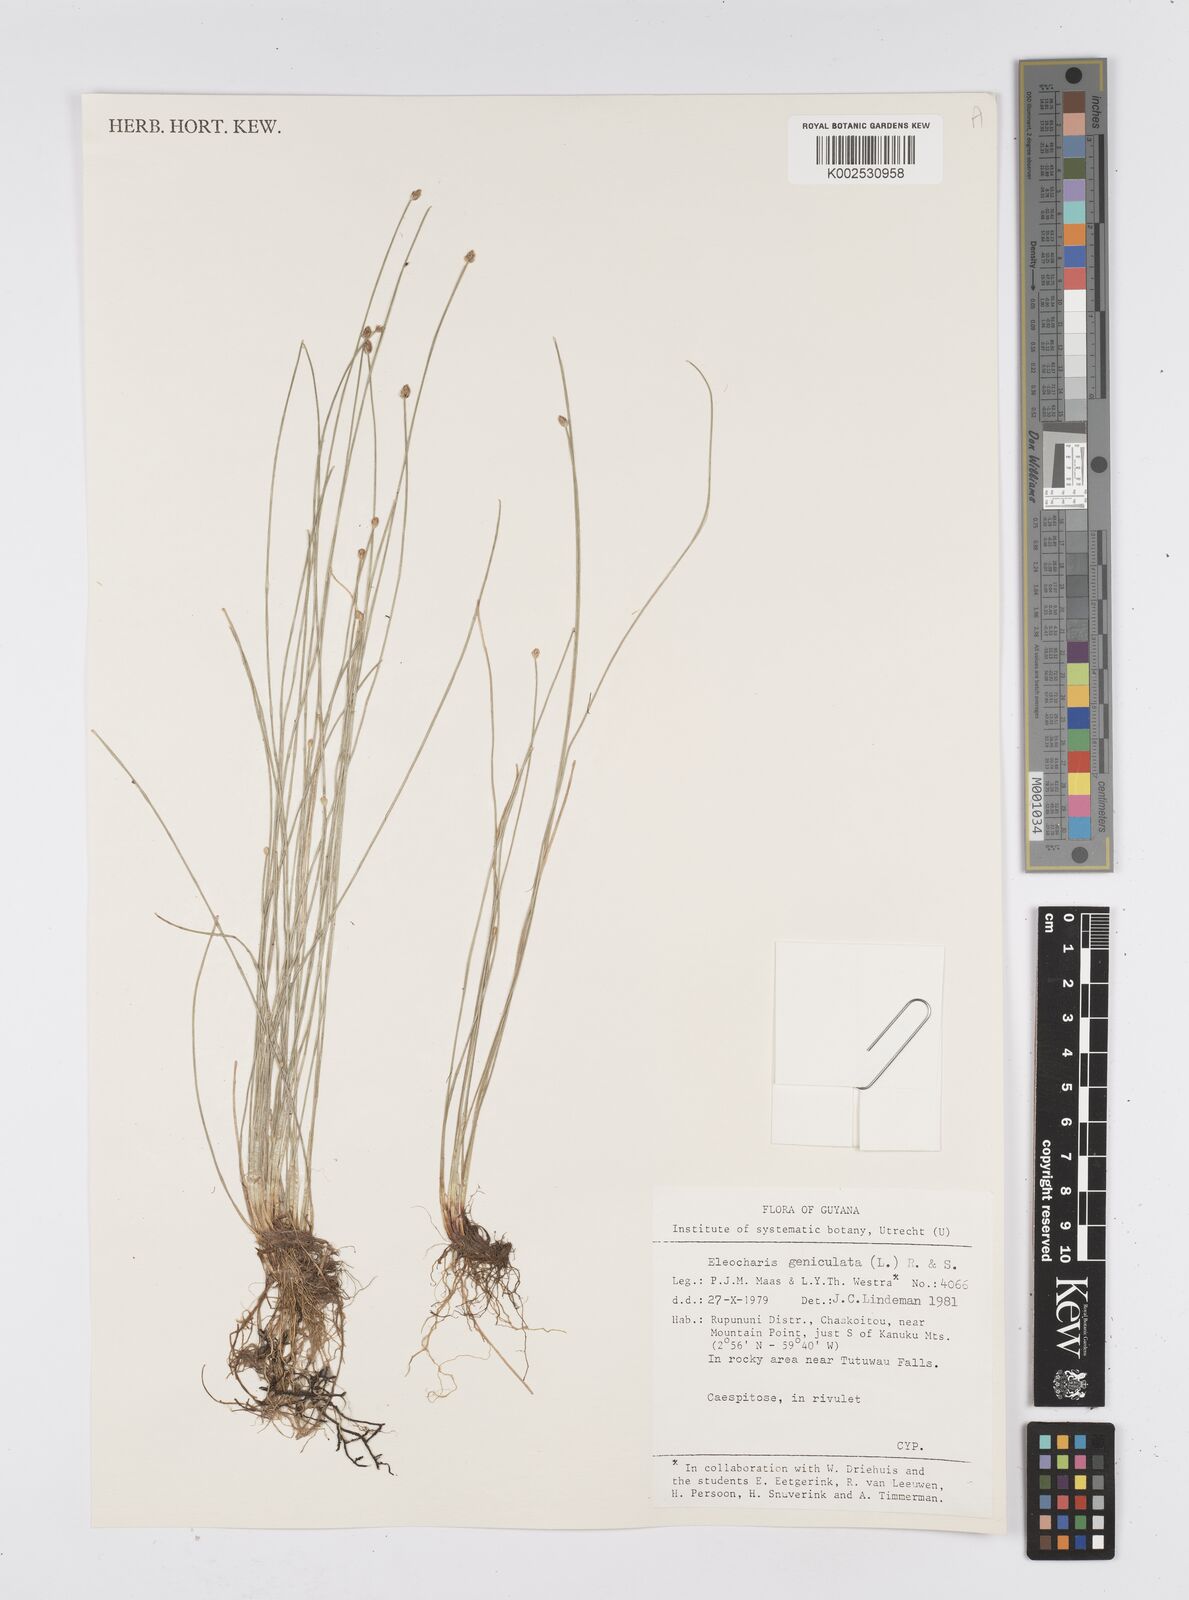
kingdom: Plantae
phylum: Tracheophyta
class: Liliopsida
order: Poales
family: Cyperaceae
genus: Eleocharis
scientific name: Eleocharis geniculata
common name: Canada spikesedge
